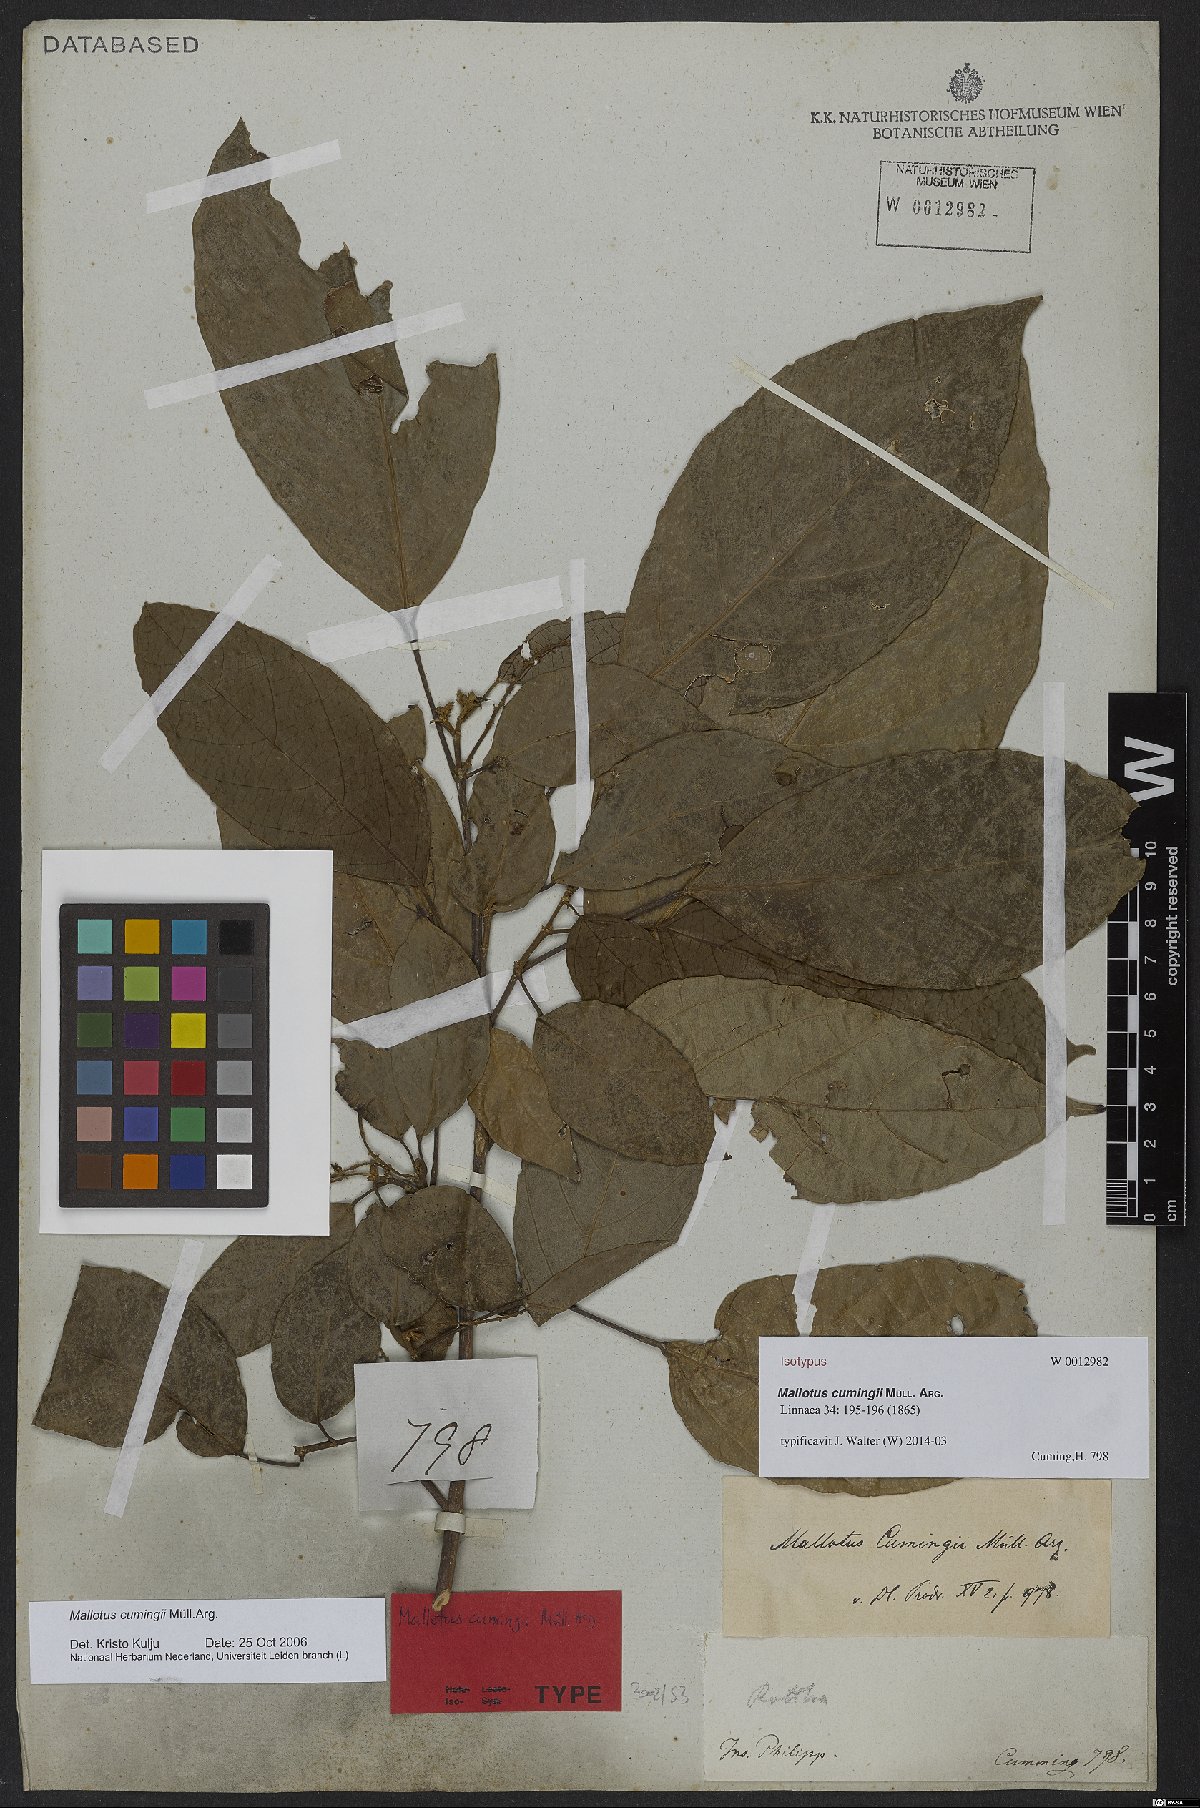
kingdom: Plantae
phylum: Tracheophyta
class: Magnoliopsida
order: Malpighiales
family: Euphorbiaceae
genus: Mallotus
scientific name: Mallotus cumingii
